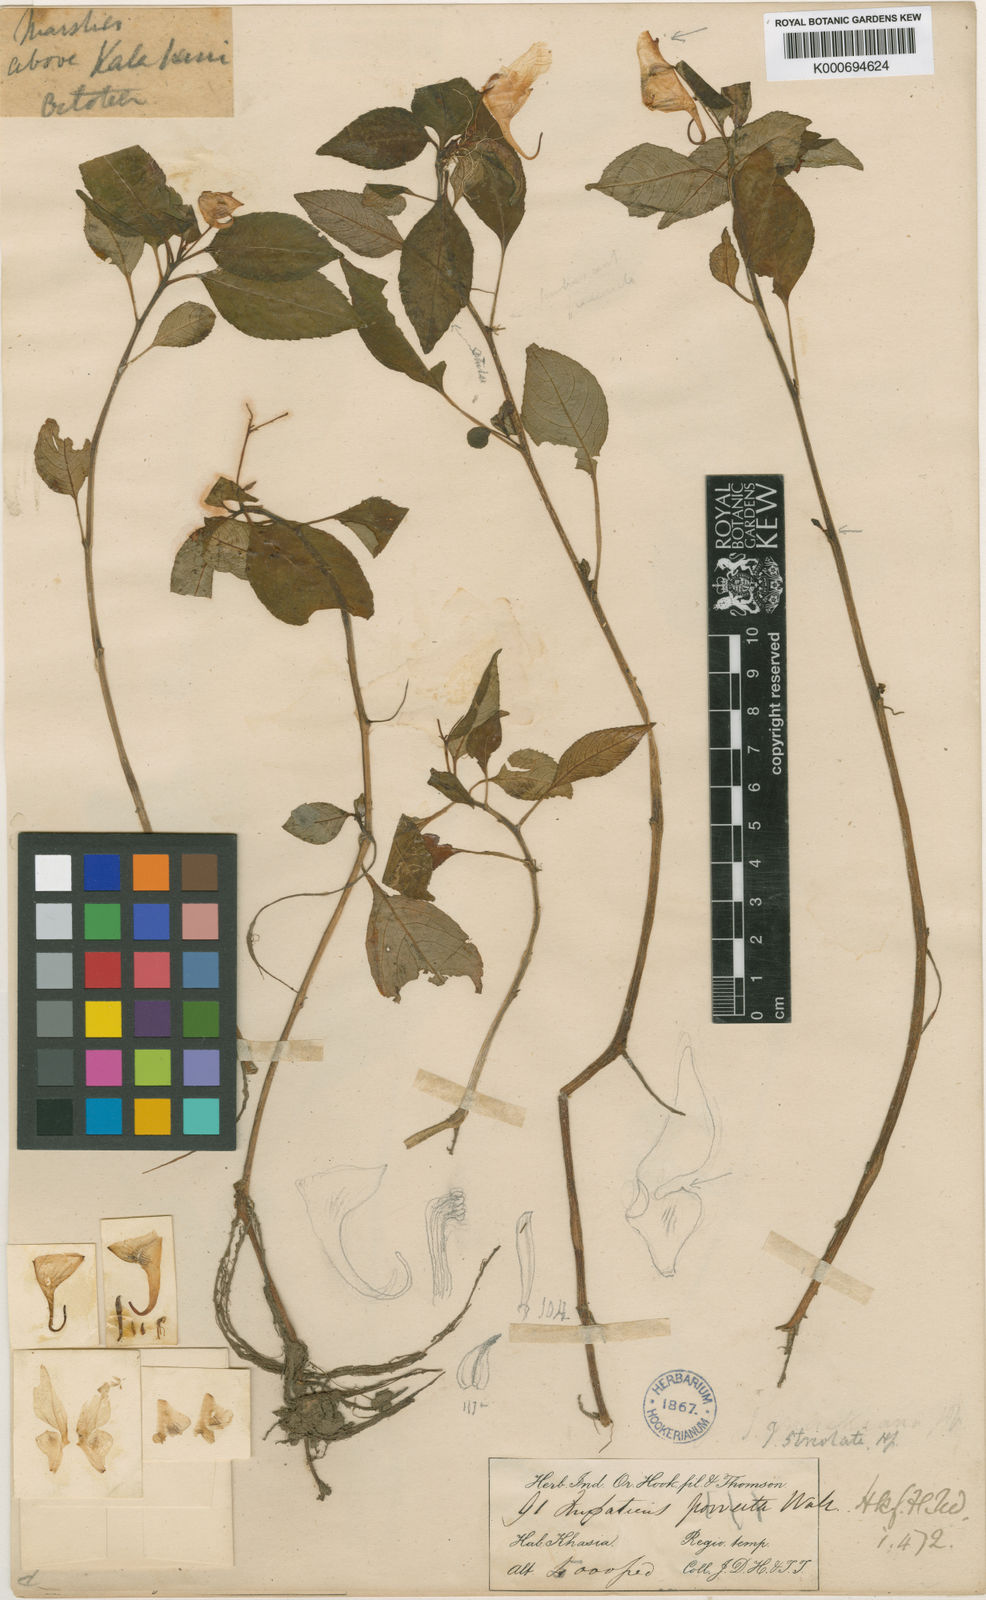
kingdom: Plantae
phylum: Tracheophyta
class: Magnoliopsida
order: Ericales
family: Balsaminaceae
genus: Impatiens
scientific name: Impatiens porrecta
